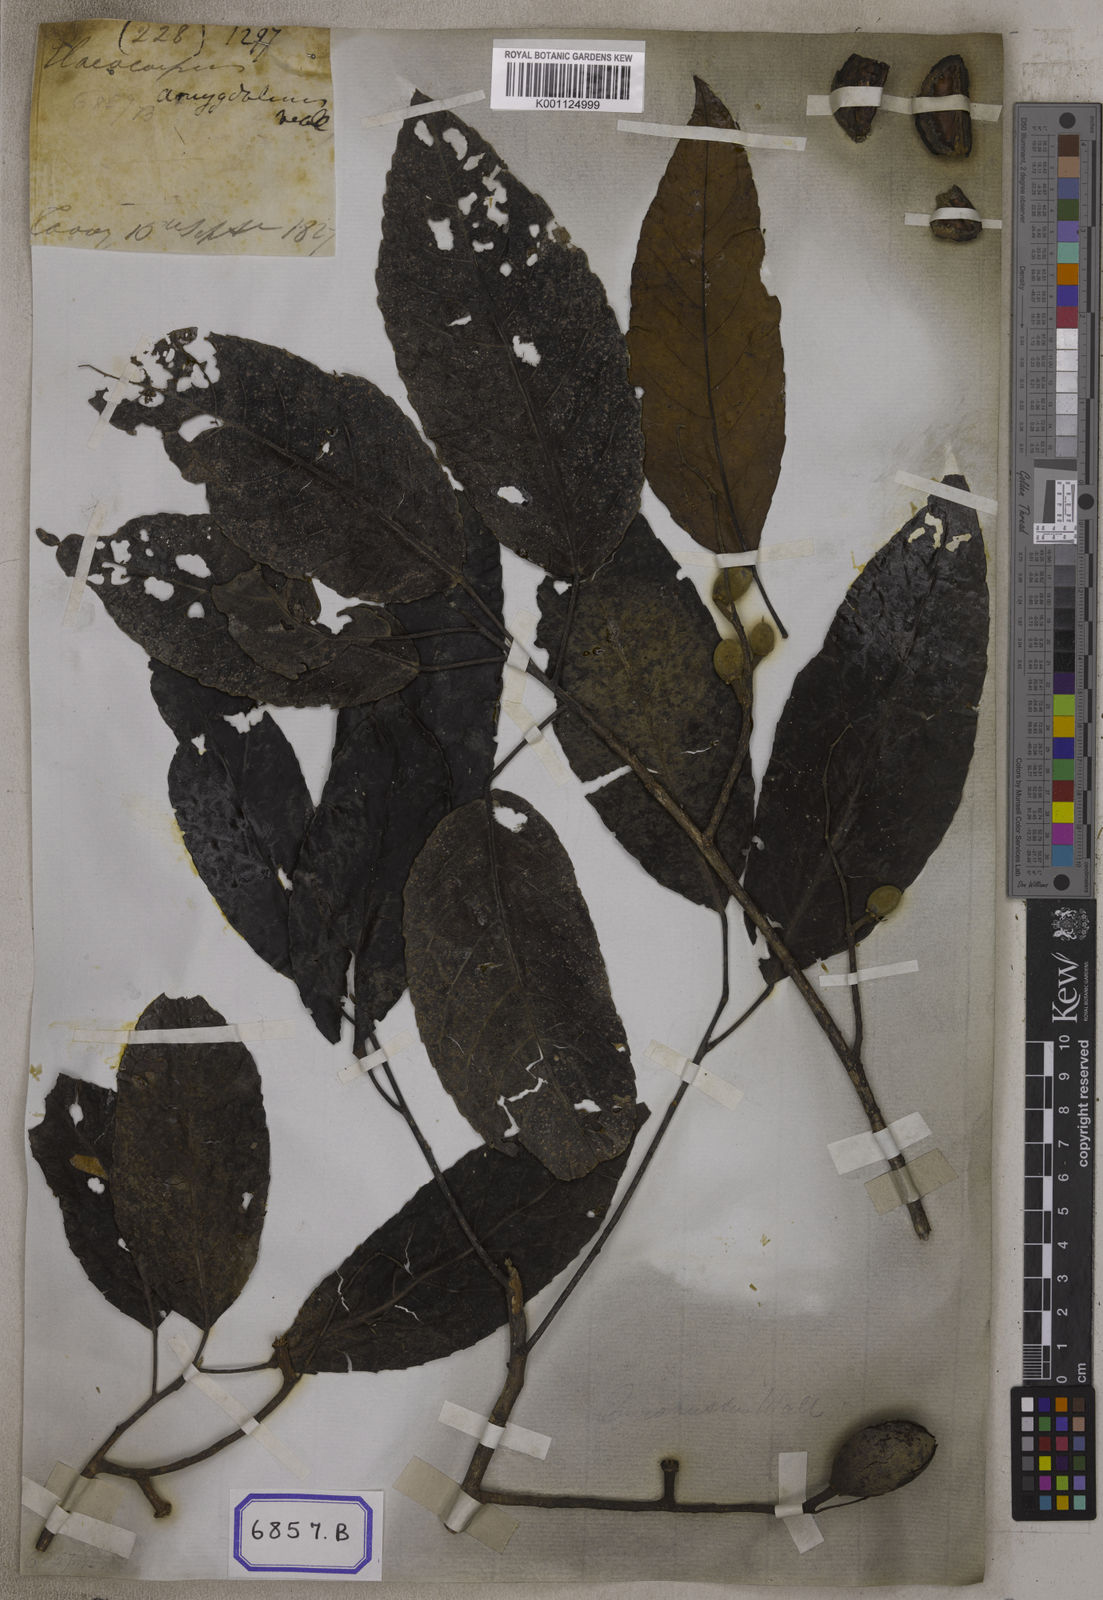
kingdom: Plantae
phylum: Tracheophyta
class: Magnoliopsida
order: Oxalidales
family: Elaeocarpaceae
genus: Elaeocarpus
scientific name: Elaeocarpus robustus
